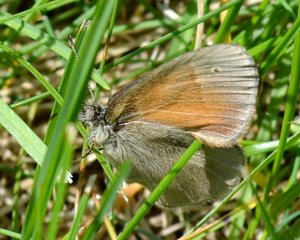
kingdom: Animalia
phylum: Arthropoda
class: Insecta
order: Lepidoptera
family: Nymphalidae
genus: Coenonympha
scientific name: Coenonympha tullia
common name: Large Heath
